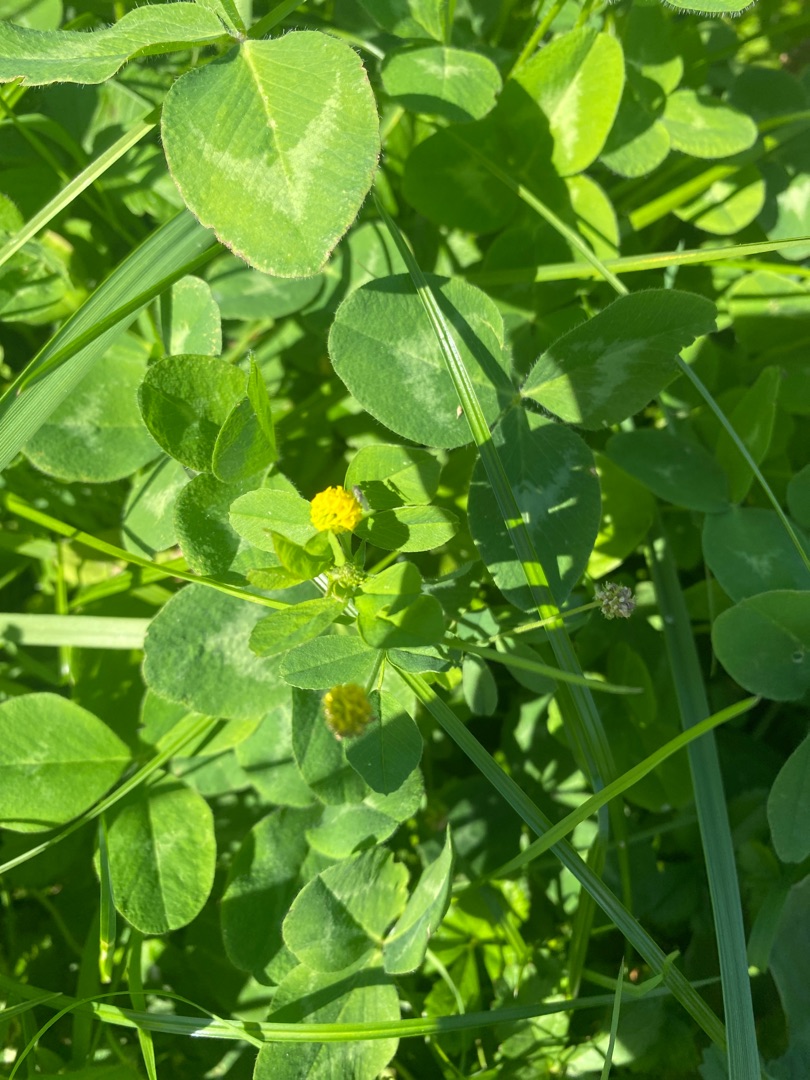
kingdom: Plantae
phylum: Tracheophyta
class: Magnoliopsida
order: Fabales
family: Fabaceae
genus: Medicago
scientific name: Medicago lupulina
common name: Humle-sneglebælg
